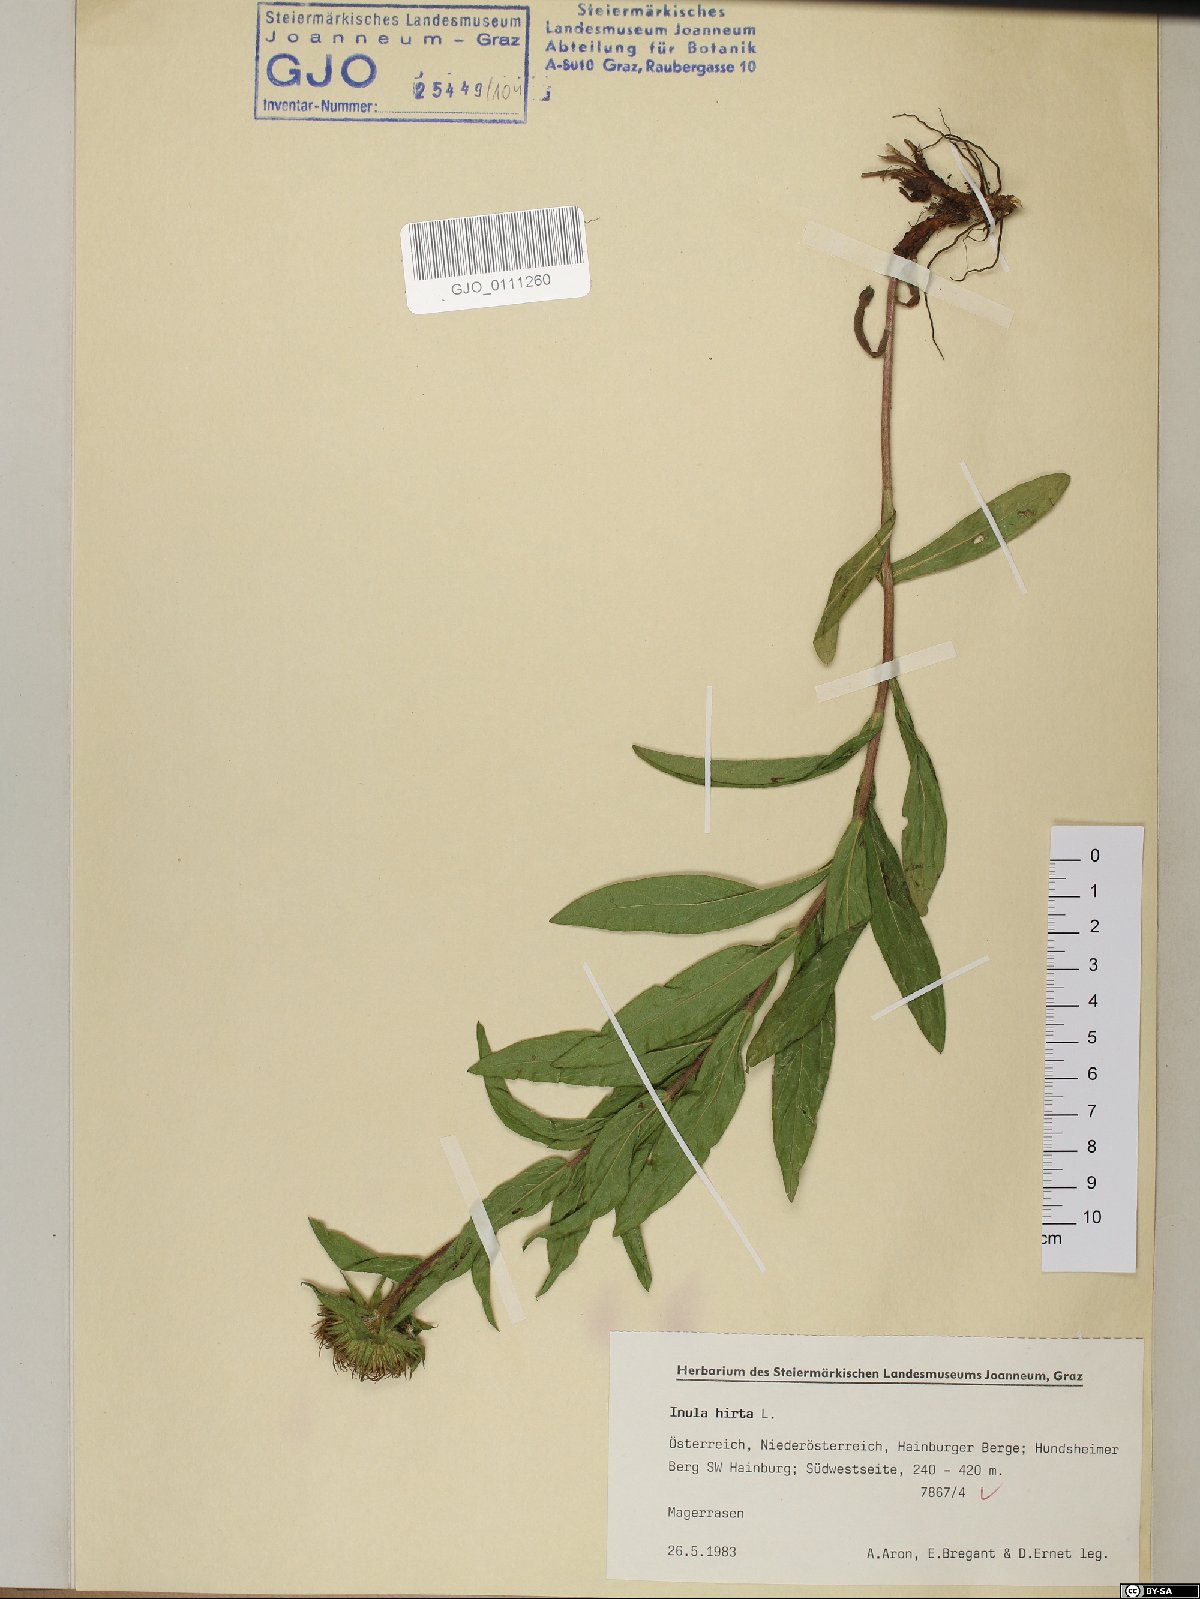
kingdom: Plantae
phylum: Tracheophyta
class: Magnoliopsida
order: Asterales
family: Asteraceae
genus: Pentanema
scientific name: Pentanema hirtum
